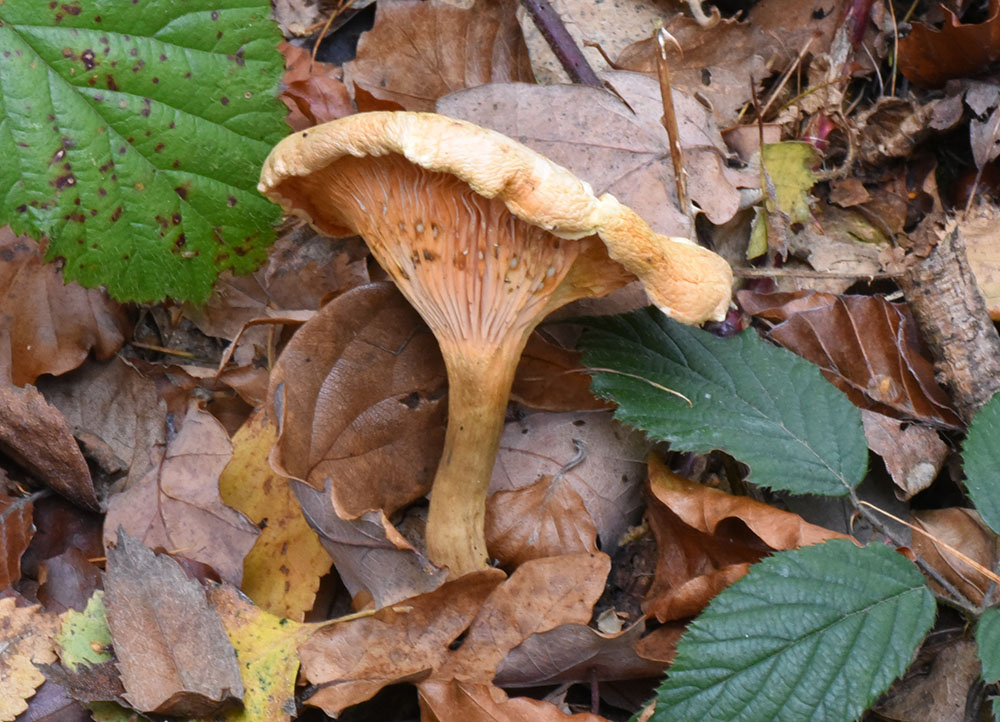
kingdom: Fungi
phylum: Basidiomycota
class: Agaricomycetes
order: Boletales
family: Hygrophoropsidaceae
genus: Hygrophoropsis
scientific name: Hygrophoropsis aurantiaca
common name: False chanterelle
